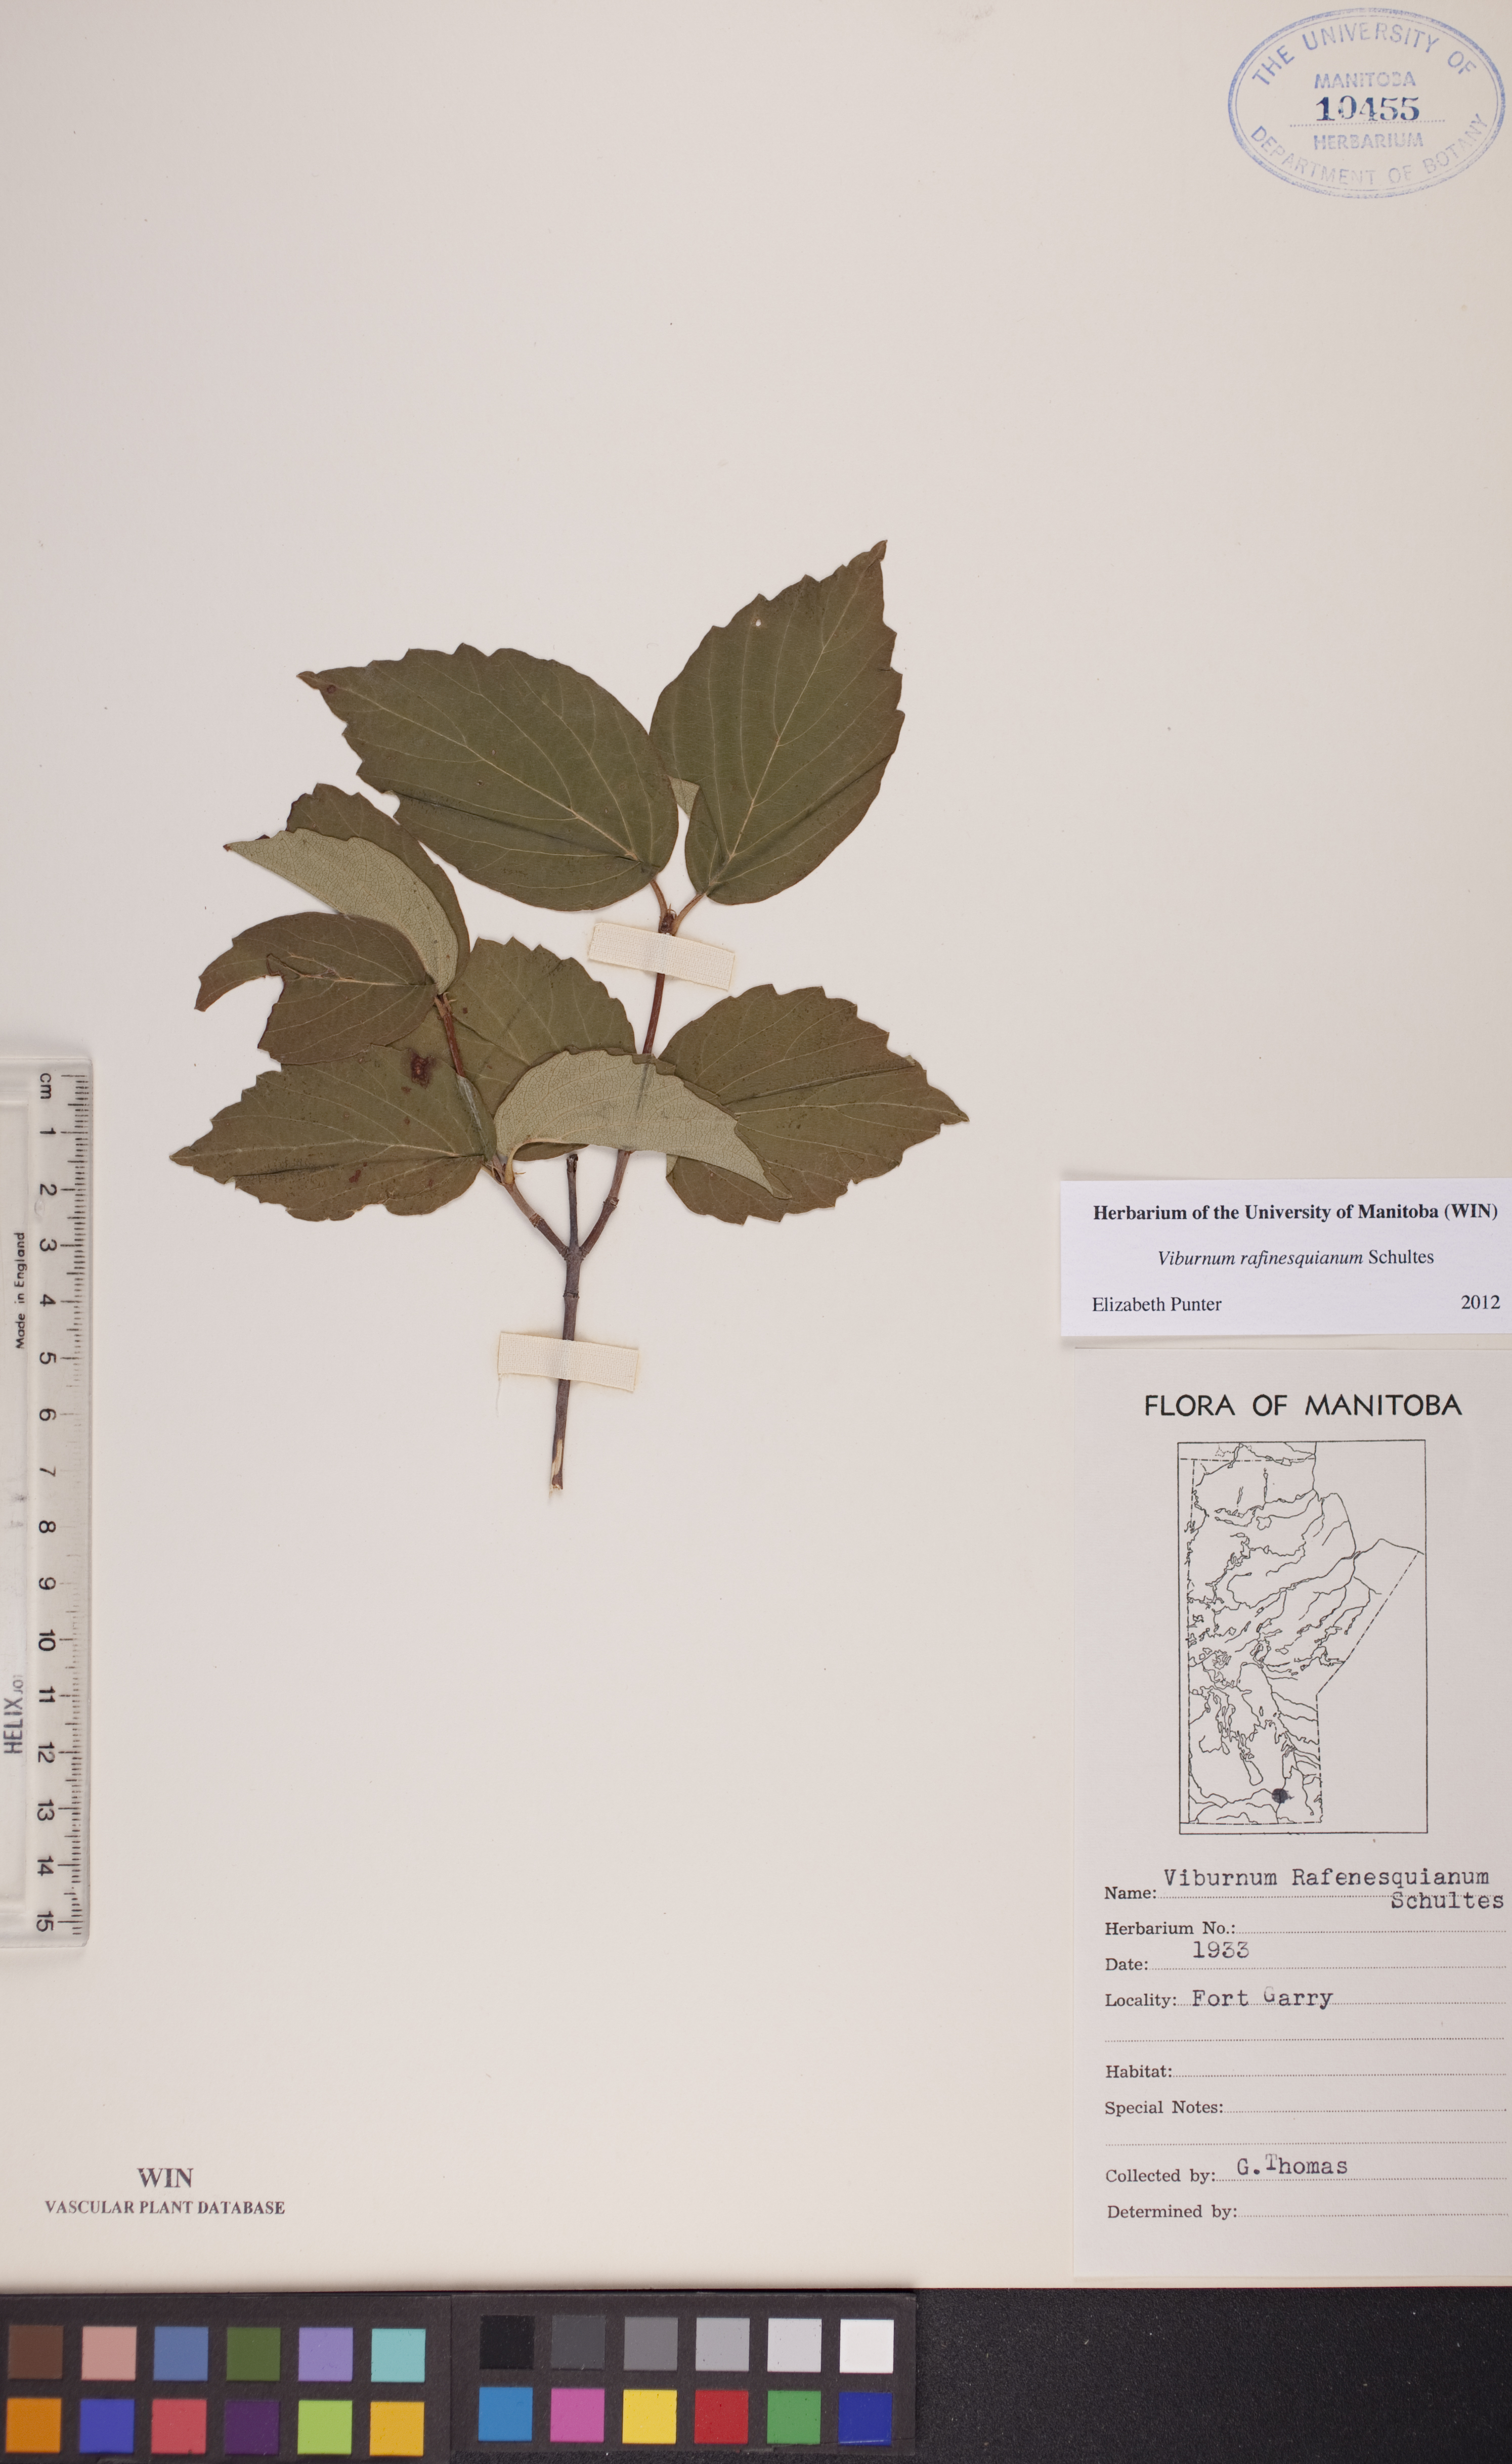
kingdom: Plantae
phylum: Tracheophyta
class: Magnoliopsida
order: Dipsacales
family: Viburnaceae
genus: Viburnum
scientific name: Viburnum rafinesquianum
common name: Downy arrow-wood
